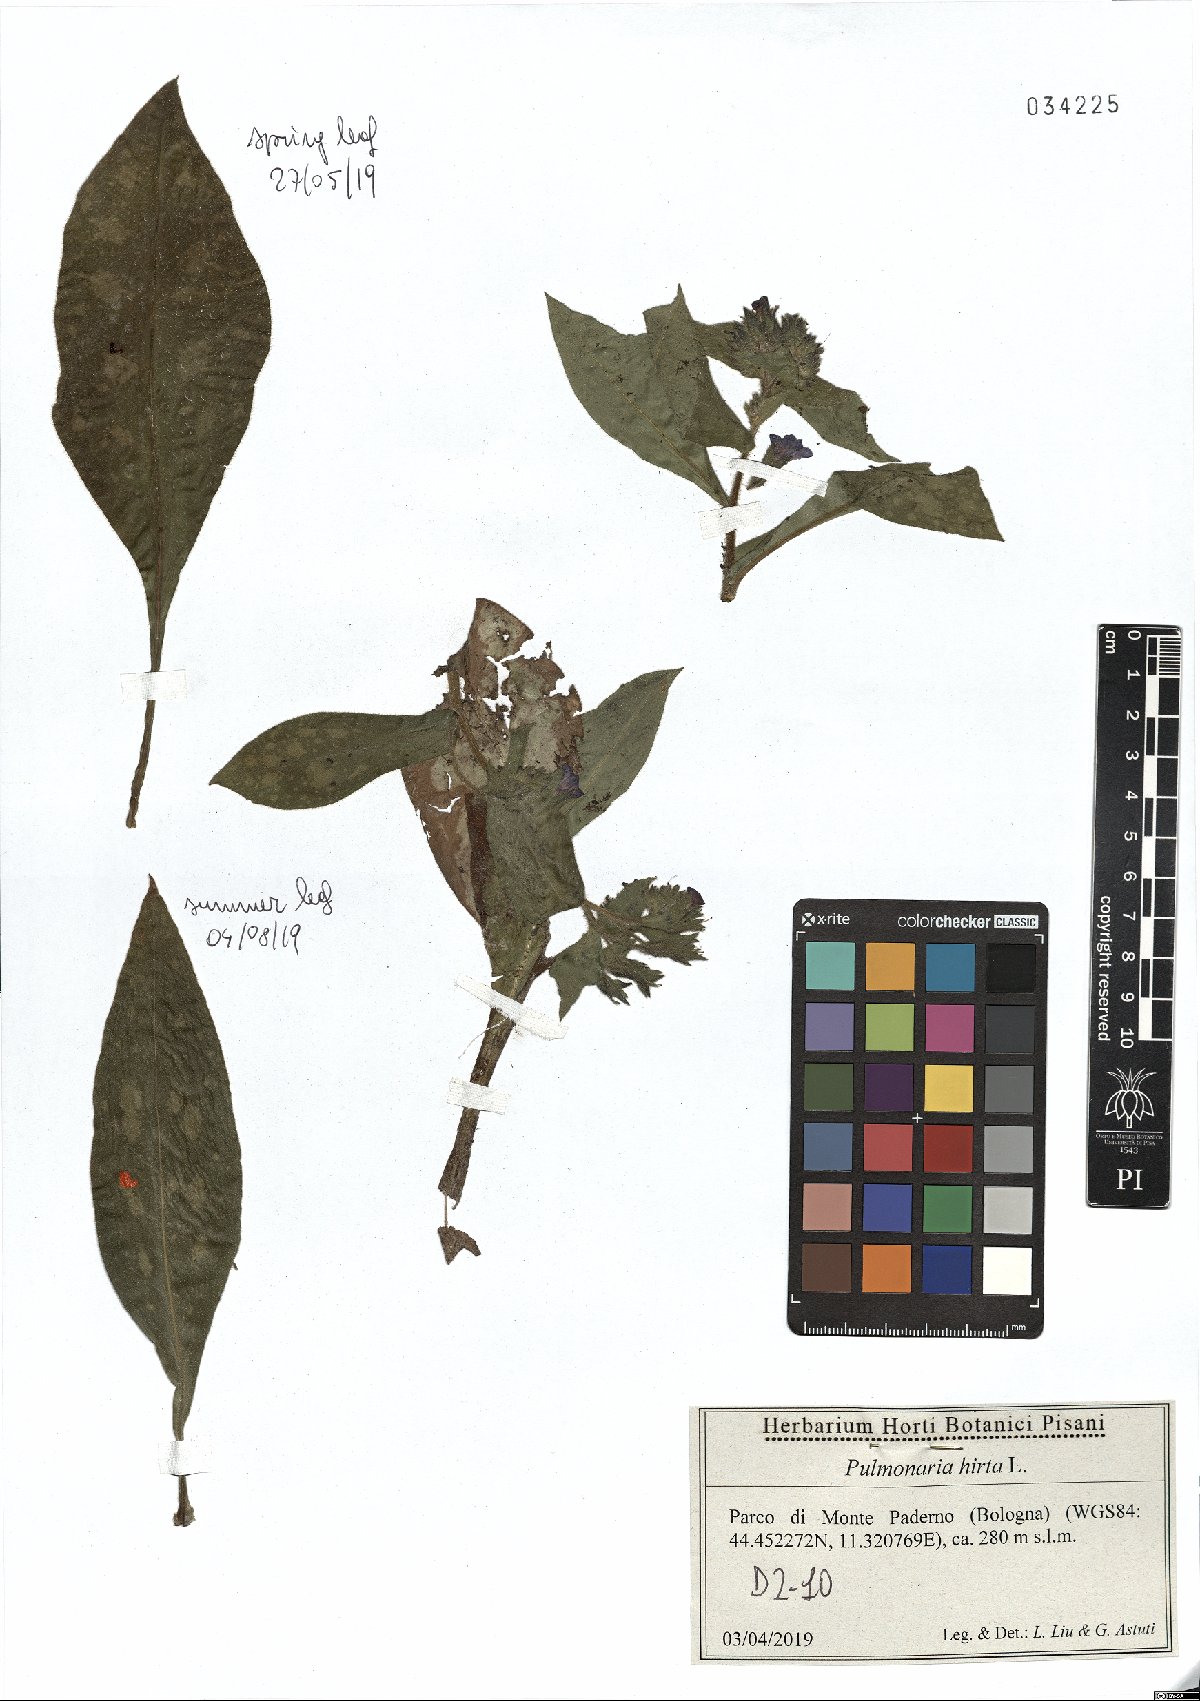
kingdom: Plantae
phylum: Tracheophyta
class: Magnoliopsida
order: Boraginales
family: Boraginaceae
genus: Pulmonaria
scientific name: Pulmonaria hirta
